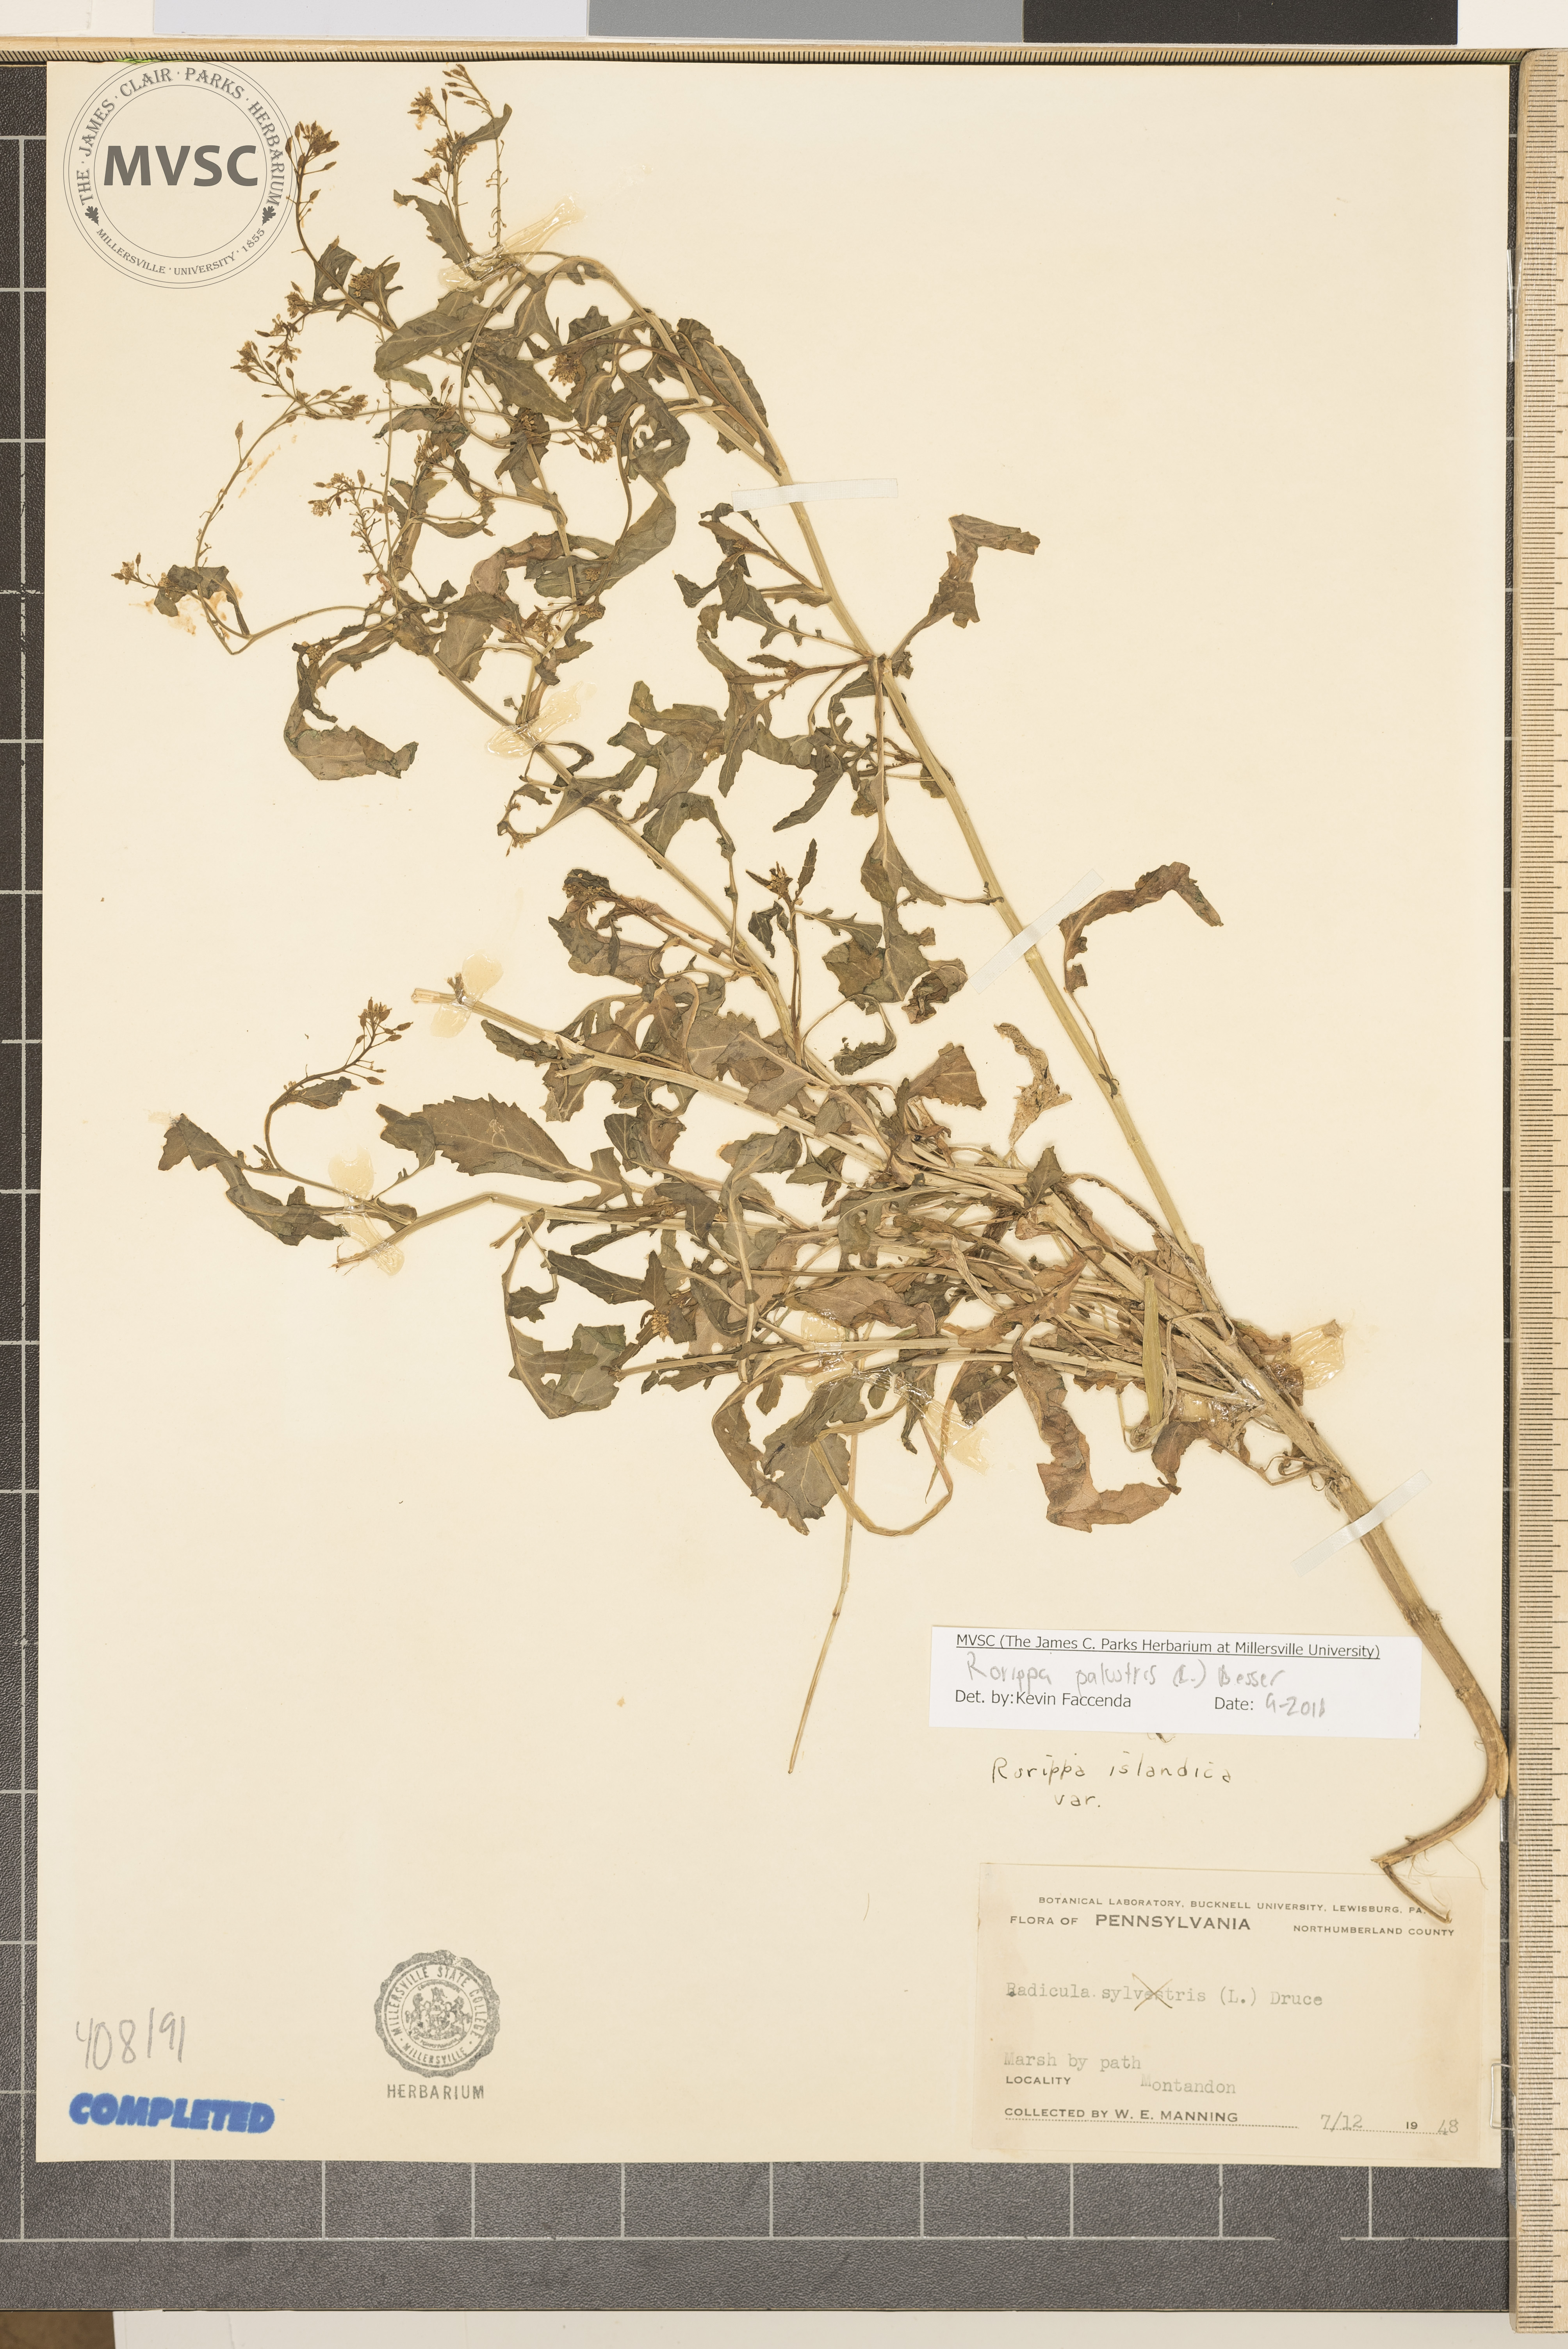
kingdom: Plantae
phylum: Tracheophyta
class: Magnoliopsida
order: Brassicales
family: Brassicaceae
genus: Rorippa
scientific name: Rorippa palustris
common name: Northern Marsh Yellowcress
